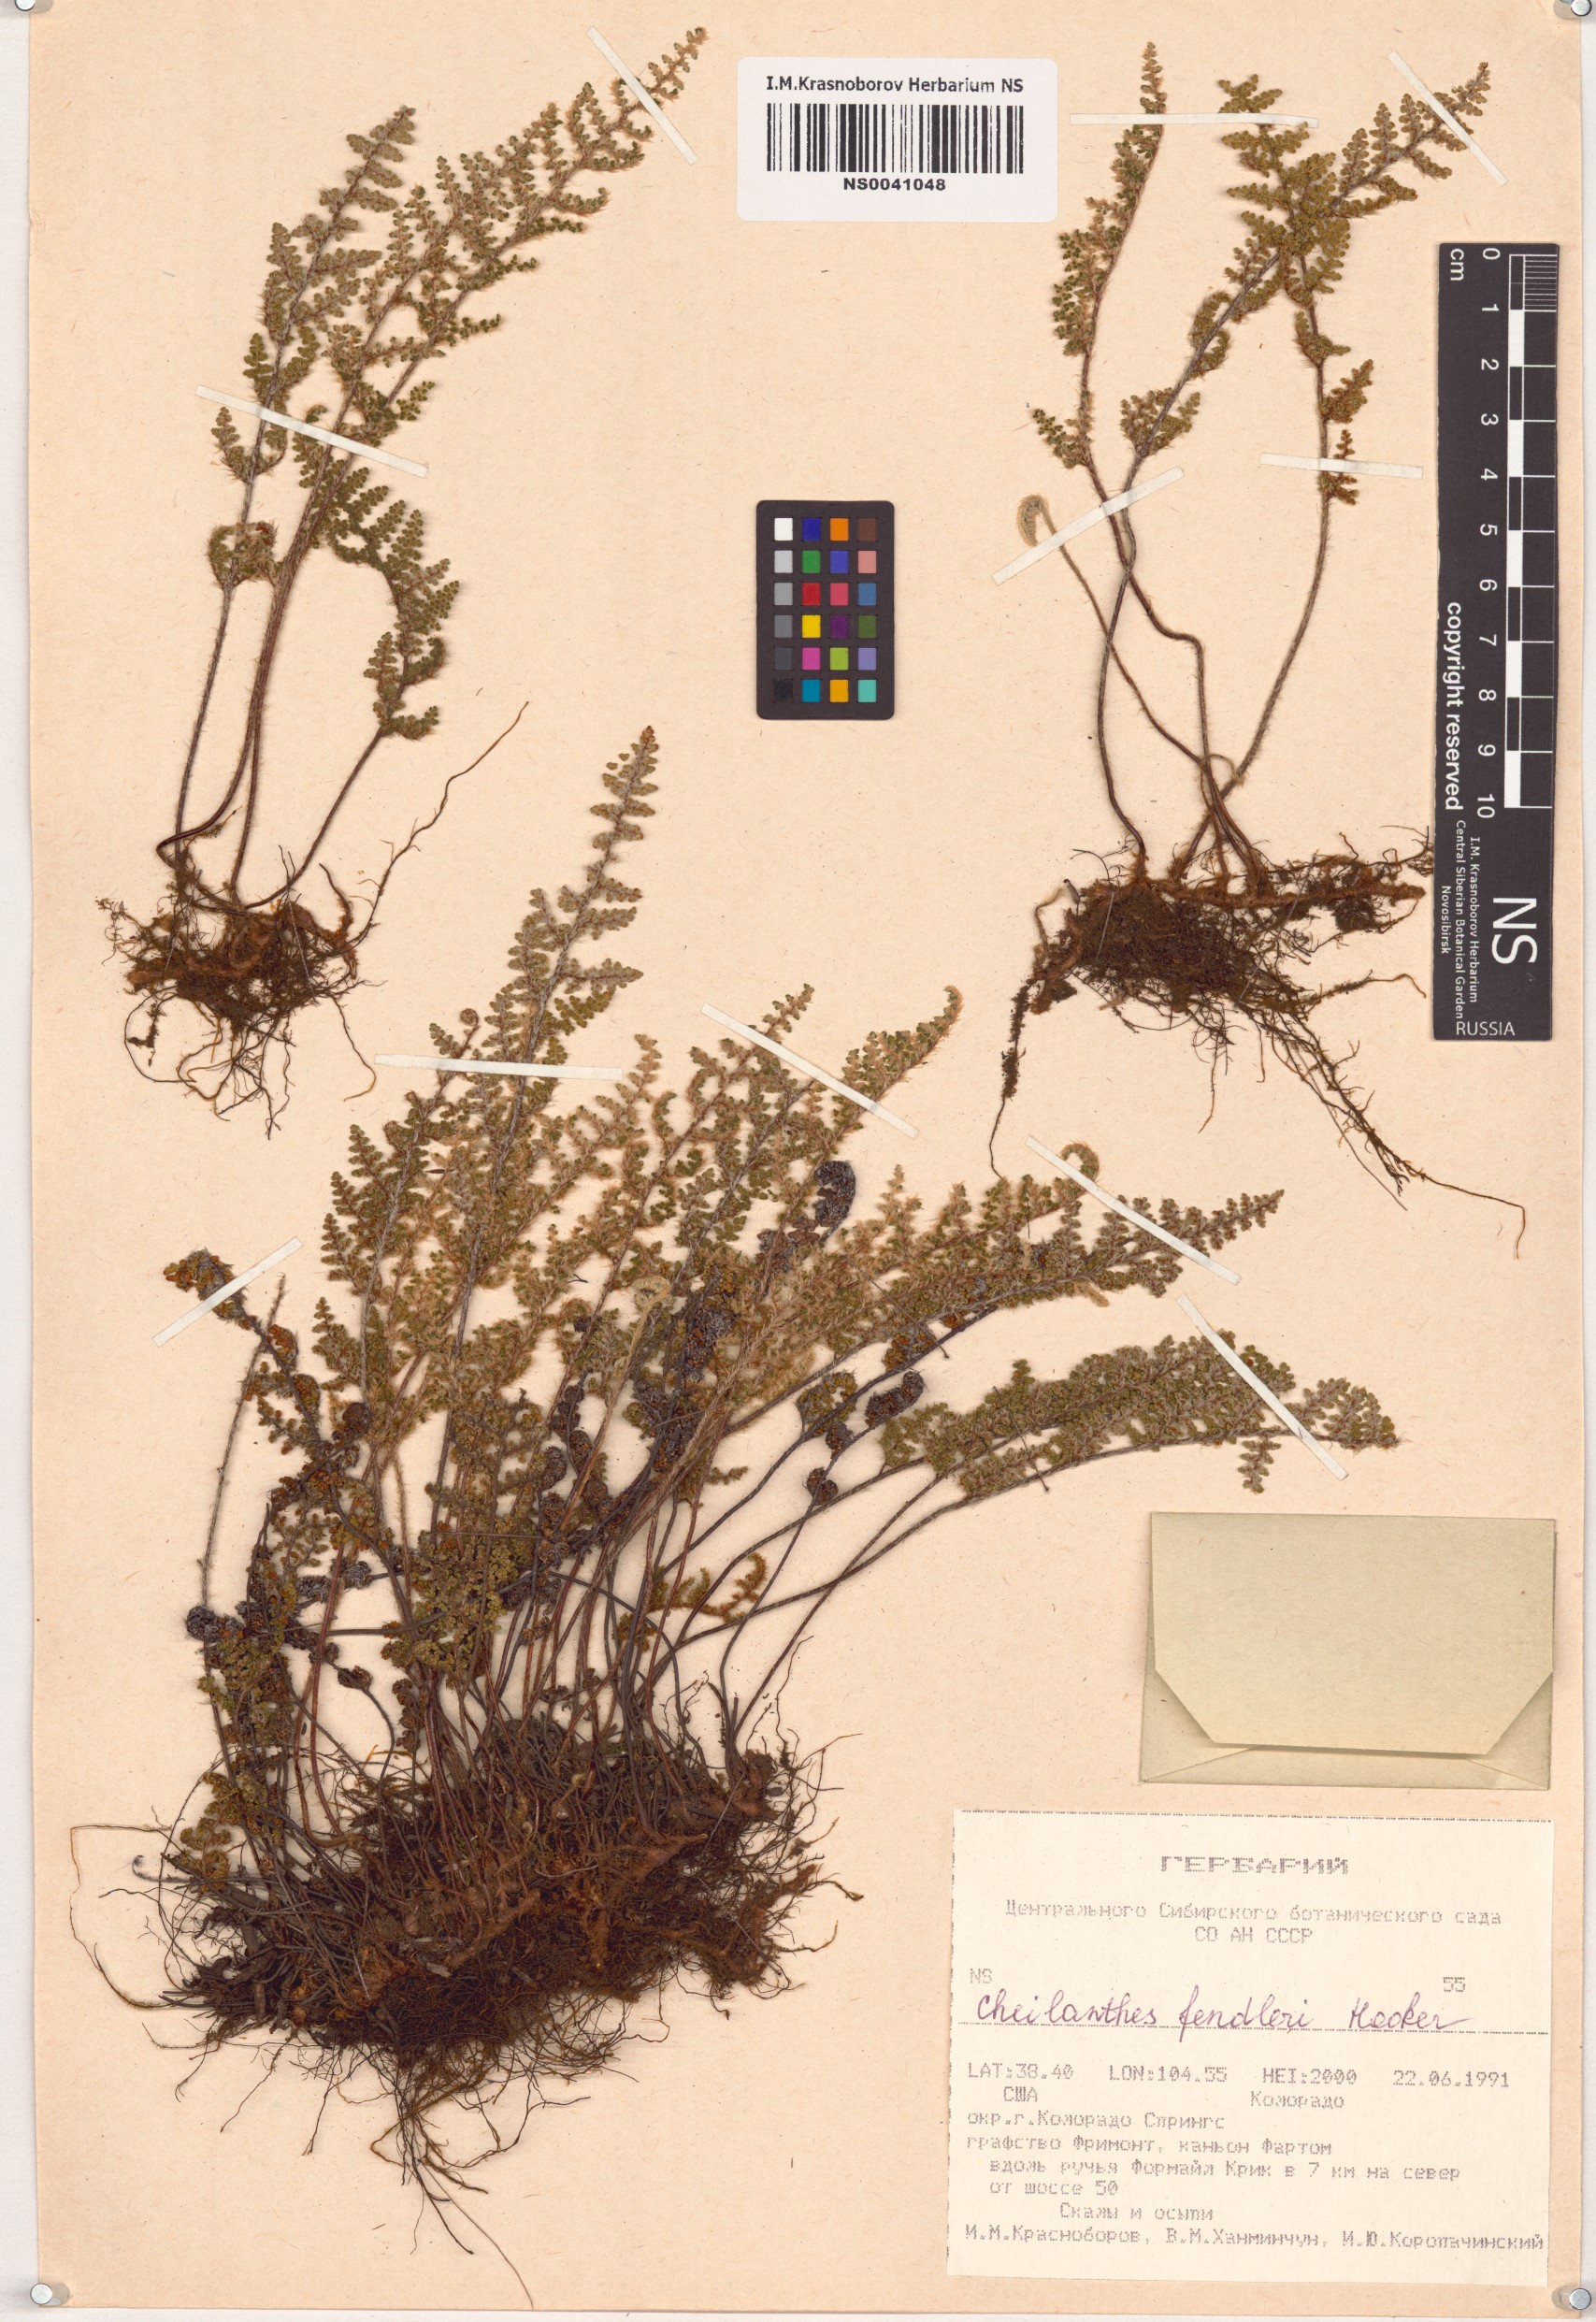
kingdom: Plantae
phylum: Tracheophyta
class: Polypodiopsida
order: Polypodiales
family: Pteridaceae
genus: Myriopteris
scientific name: Myriopteris fendleri
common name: Fendler's lip fern
